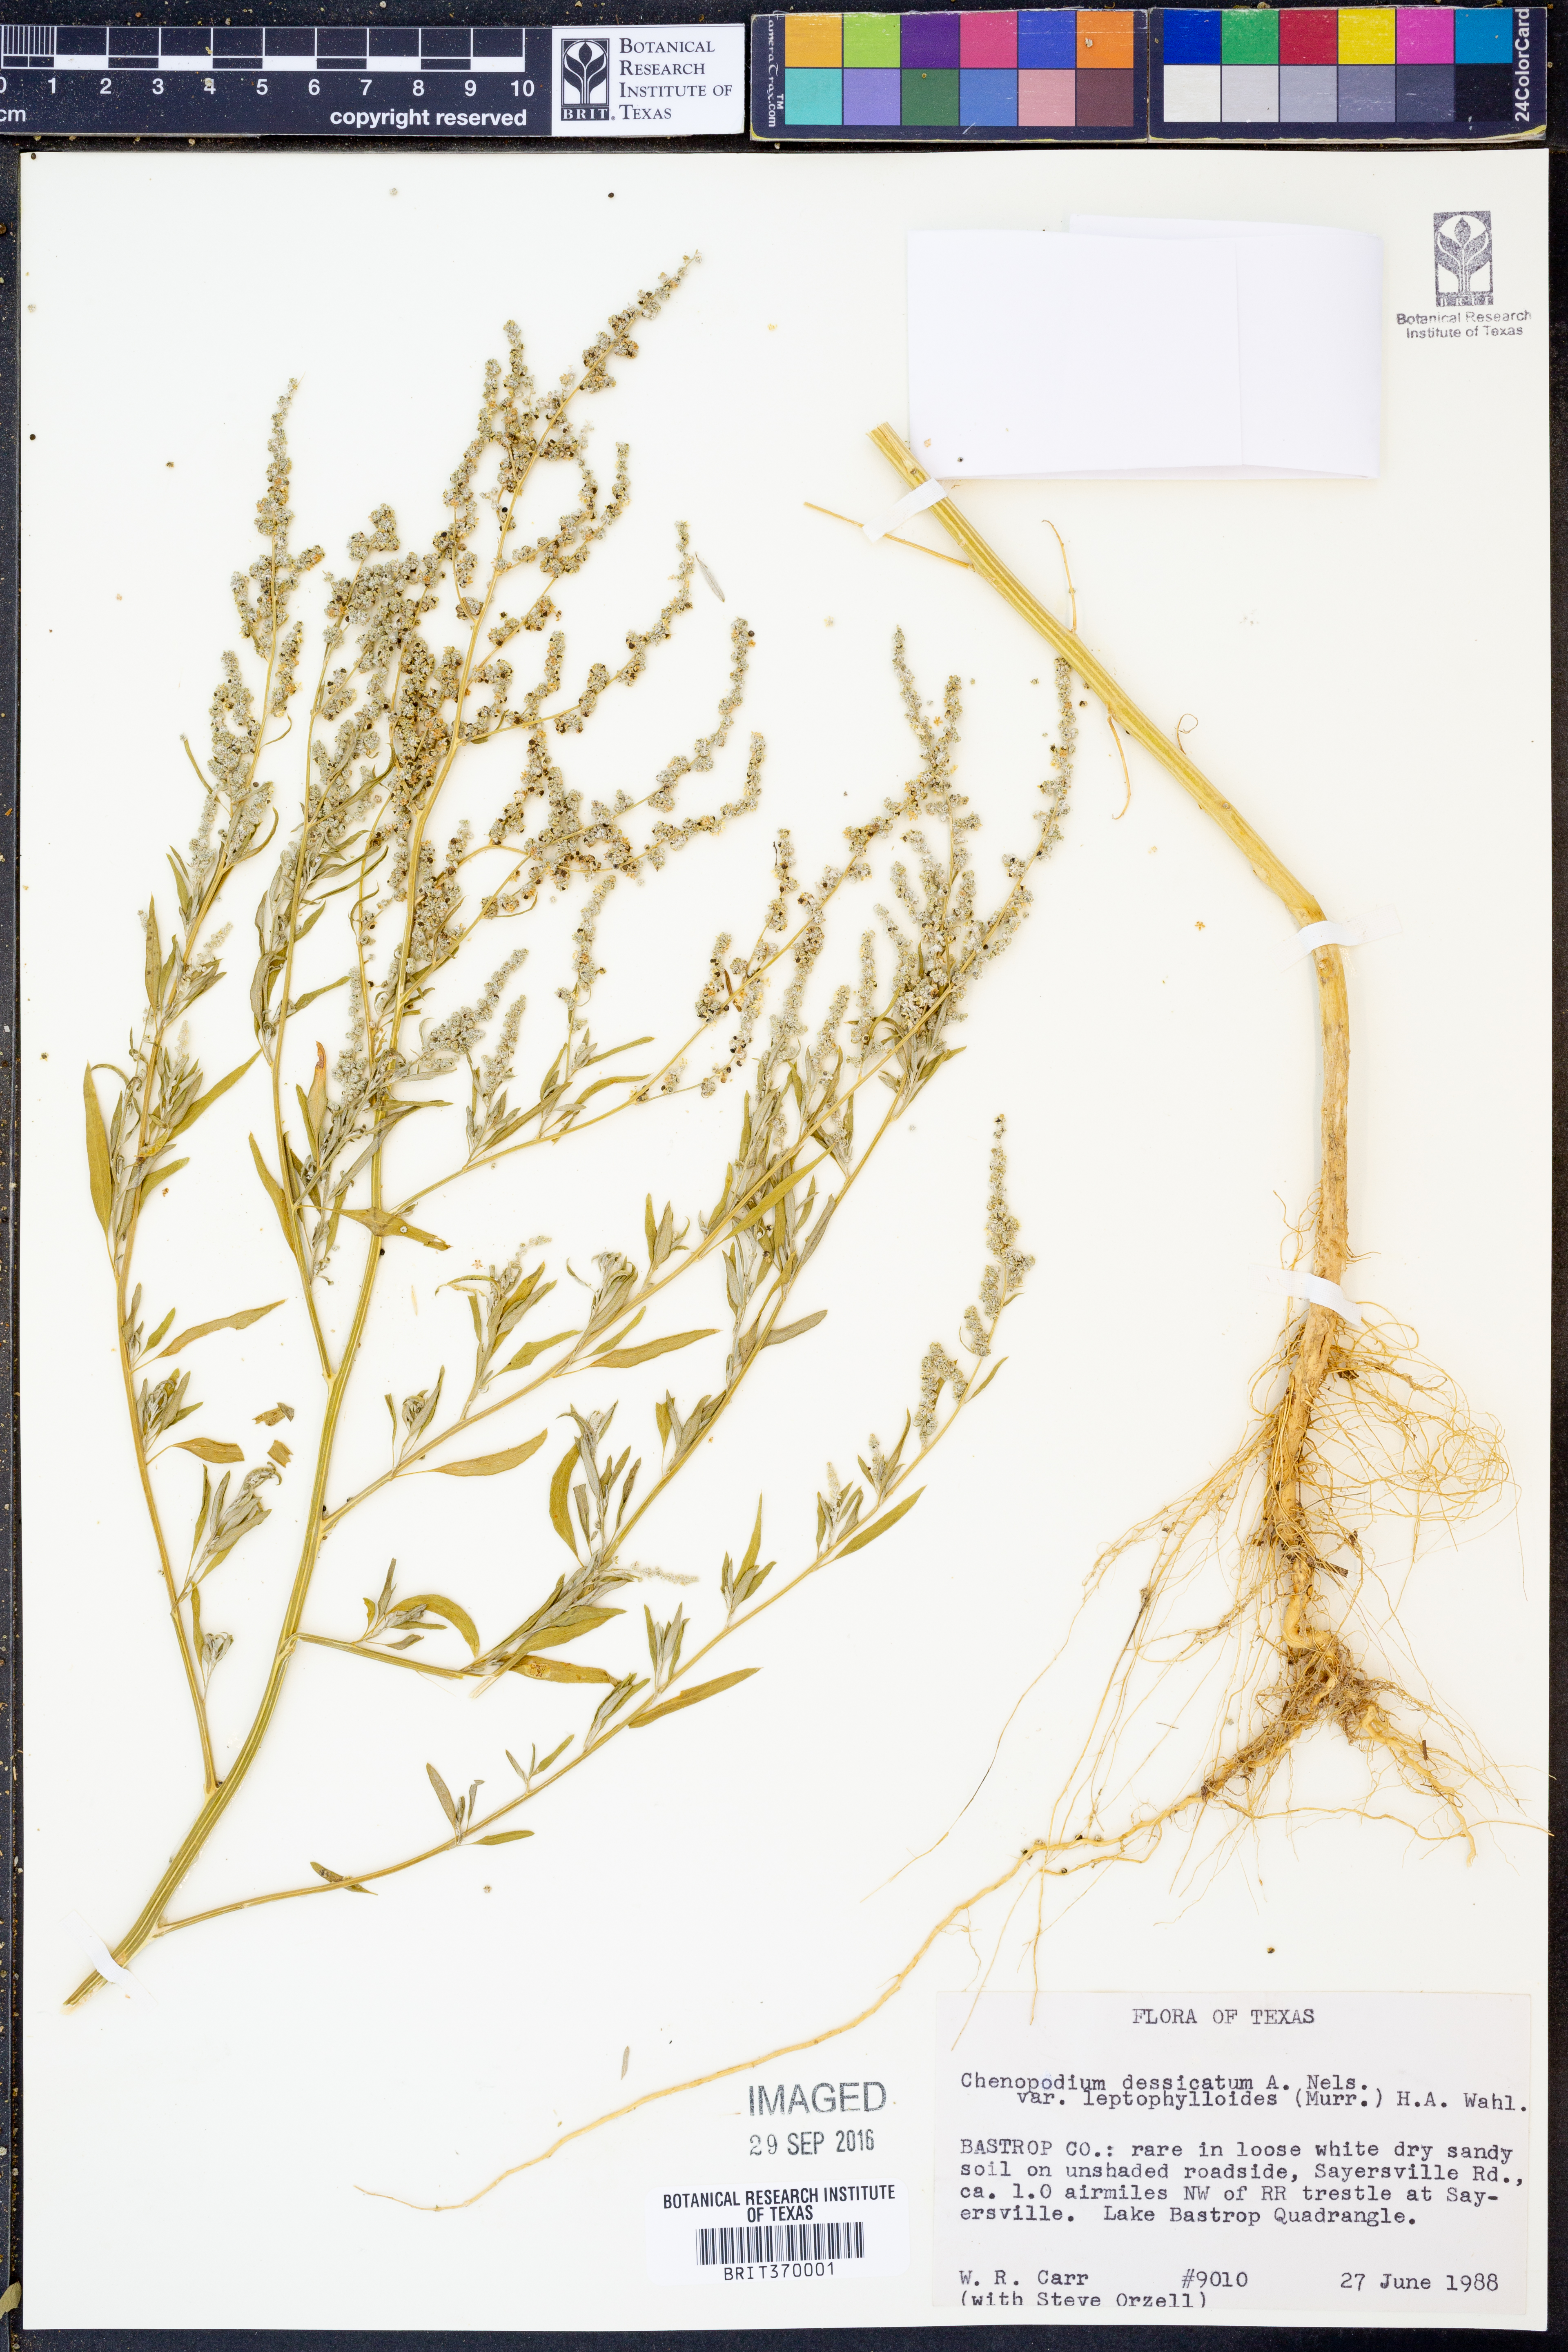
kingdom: Plantae
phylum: Tracheophyta
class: Magnoliopsida
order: Caryophyllales
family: Amaranthaceae
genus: Chenopodium
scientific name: Chenopodium pratericola
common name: Desert goosefoot
